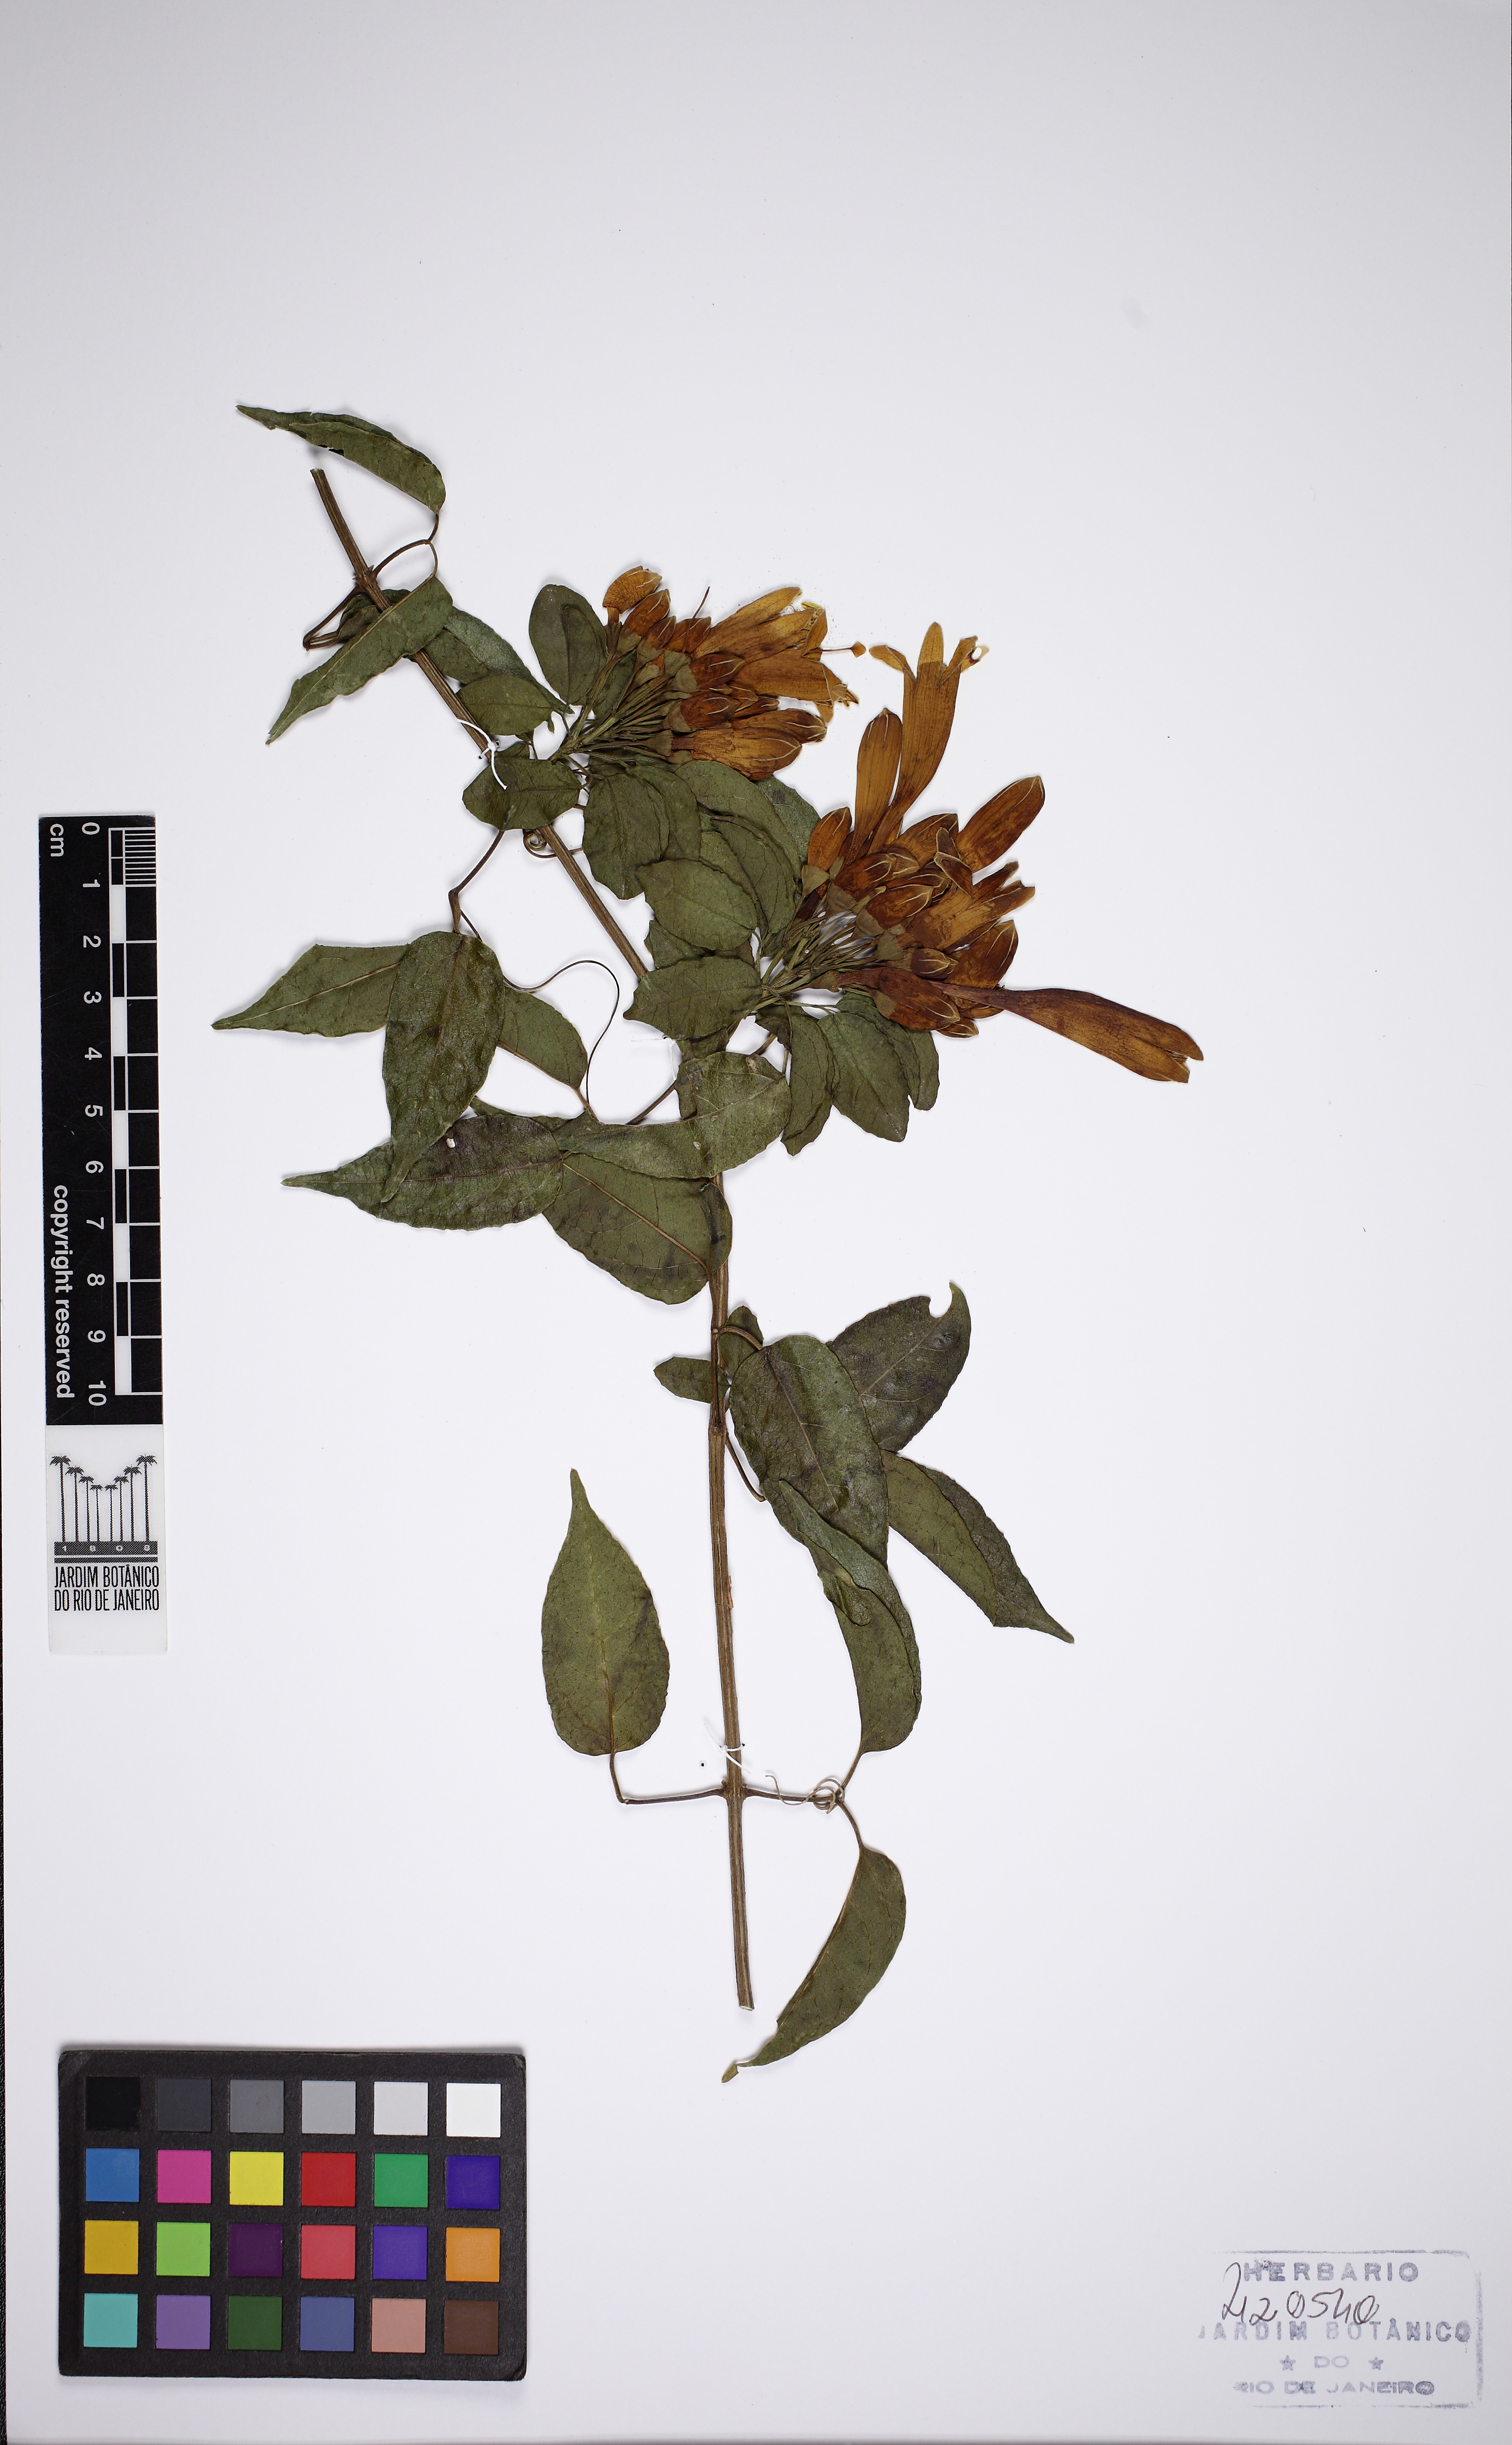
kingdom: Plantae
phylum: Tracheophyta
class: Magnoliopsida
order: Lamiales
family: Bignoniaceae
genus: Pyrostegia
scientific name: Pyrostegia venusta
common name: Flamevine
